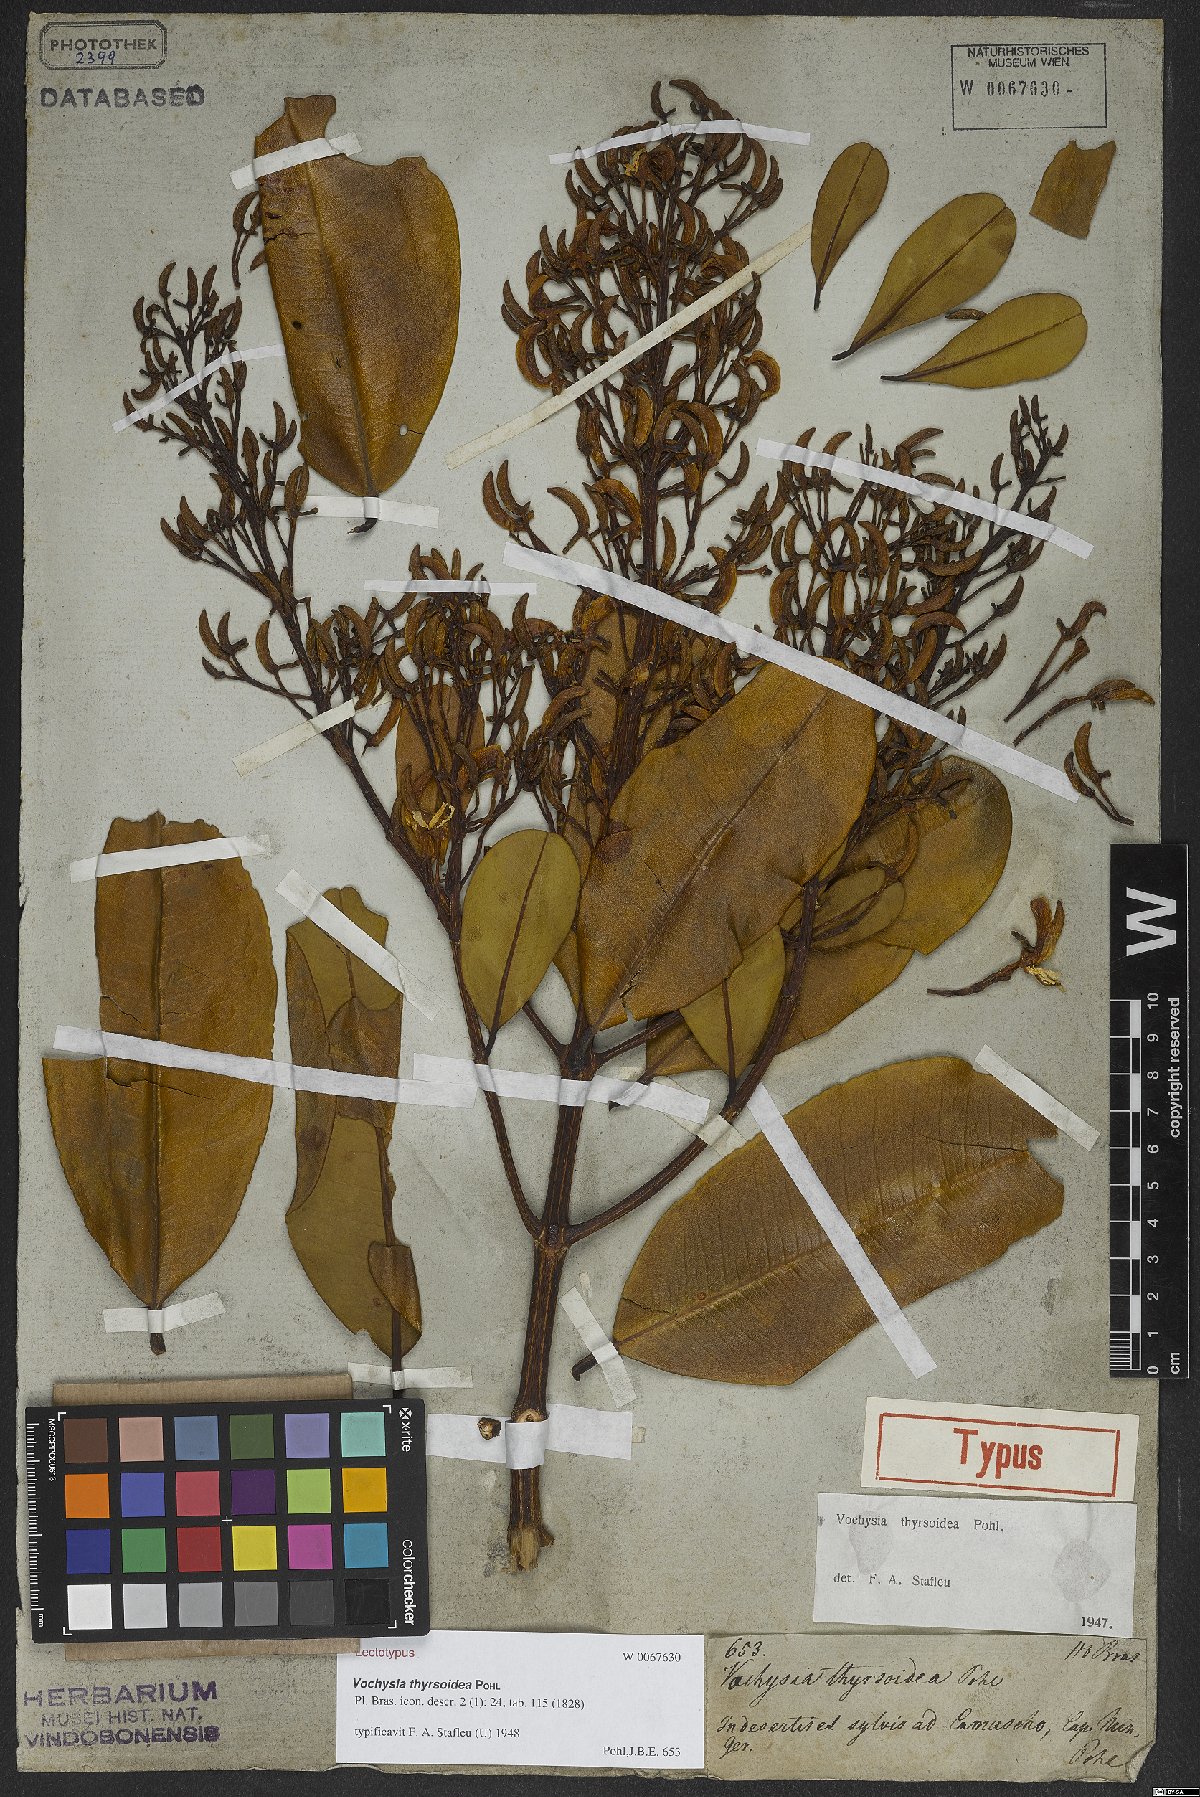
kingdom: Plantae
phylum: Tracheophyta
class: Magnoliopsida
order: Myrtales
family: Vochysiaceae
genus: Vochysia
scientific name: Vochysia thyrsoidea
